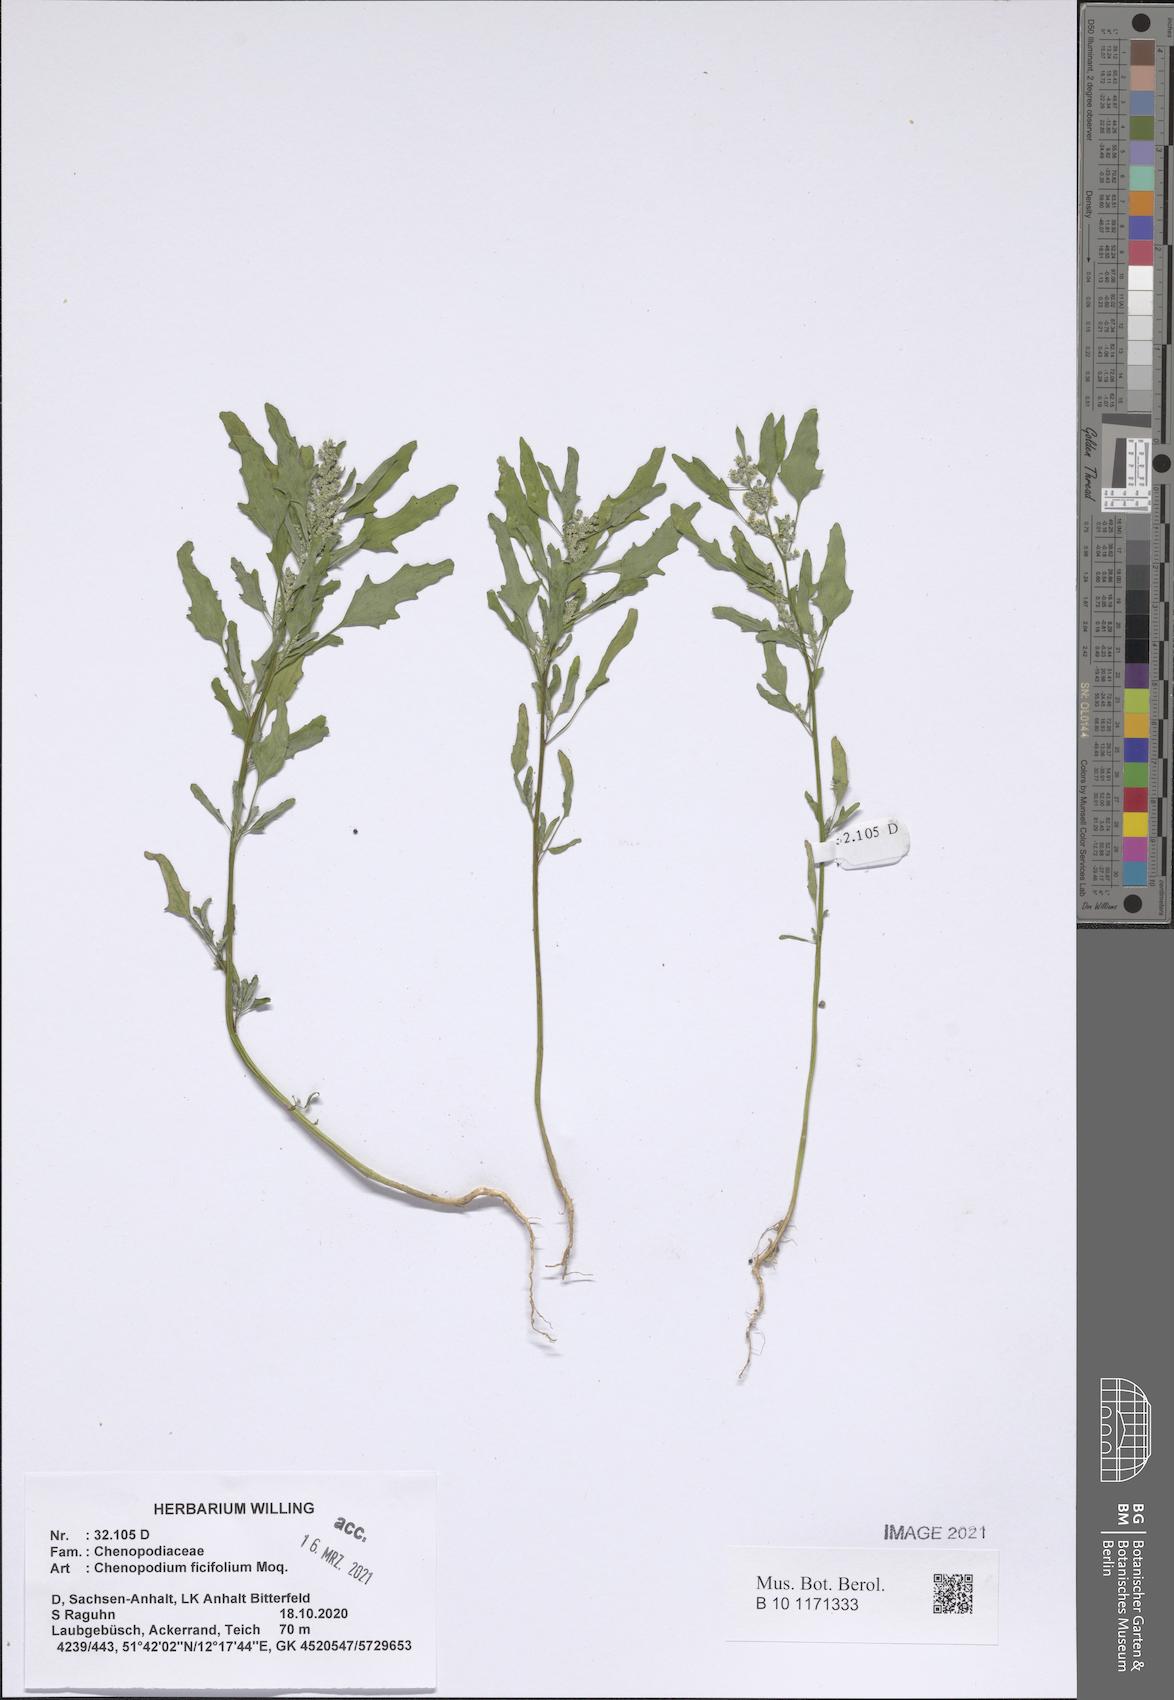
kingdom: Plantae
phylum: Tracheophyta
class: Magnoliopsida
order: Caryophyllales
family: Amaranthaceae
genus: Chenopodium
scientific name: Chenopodium ficifolium
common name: Fig-leaved goosefoot
